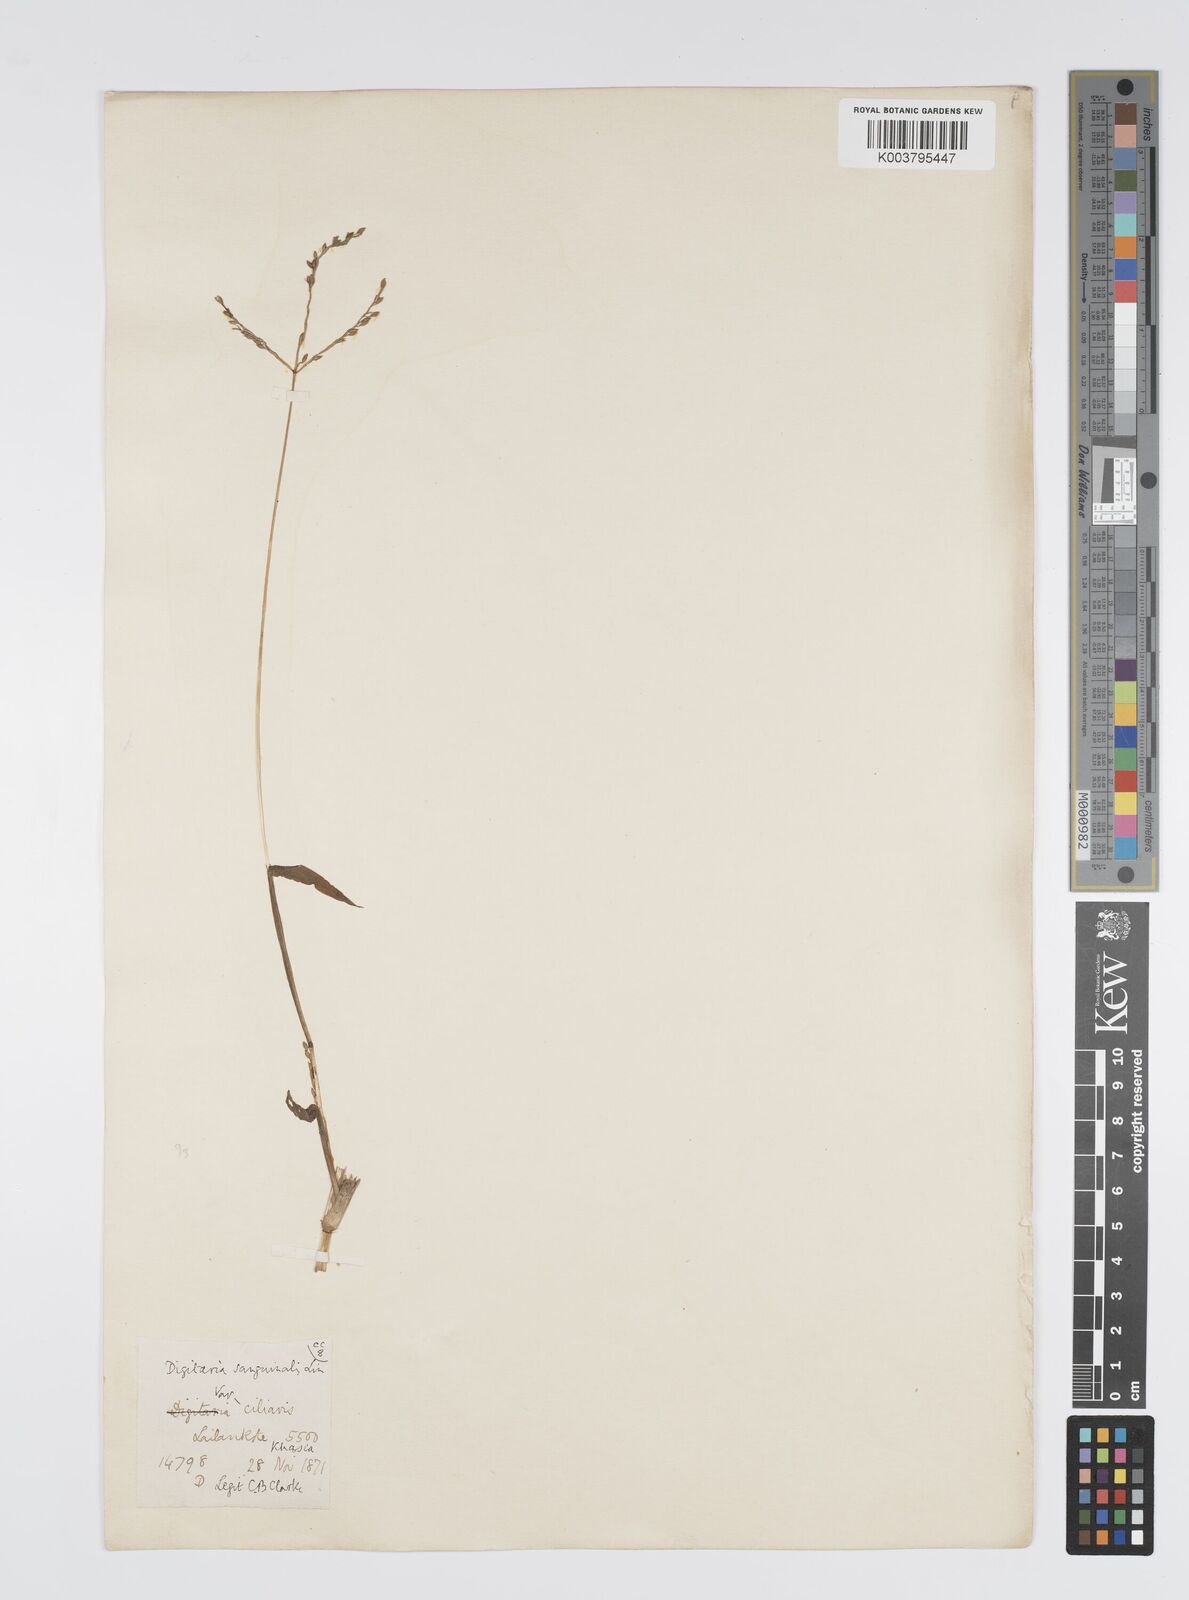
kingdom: Plantae
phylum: Tracheophyta
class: Liliopsida
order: Poales
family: Poaceae
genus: Digitaria
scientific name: Digitaria cruciata
